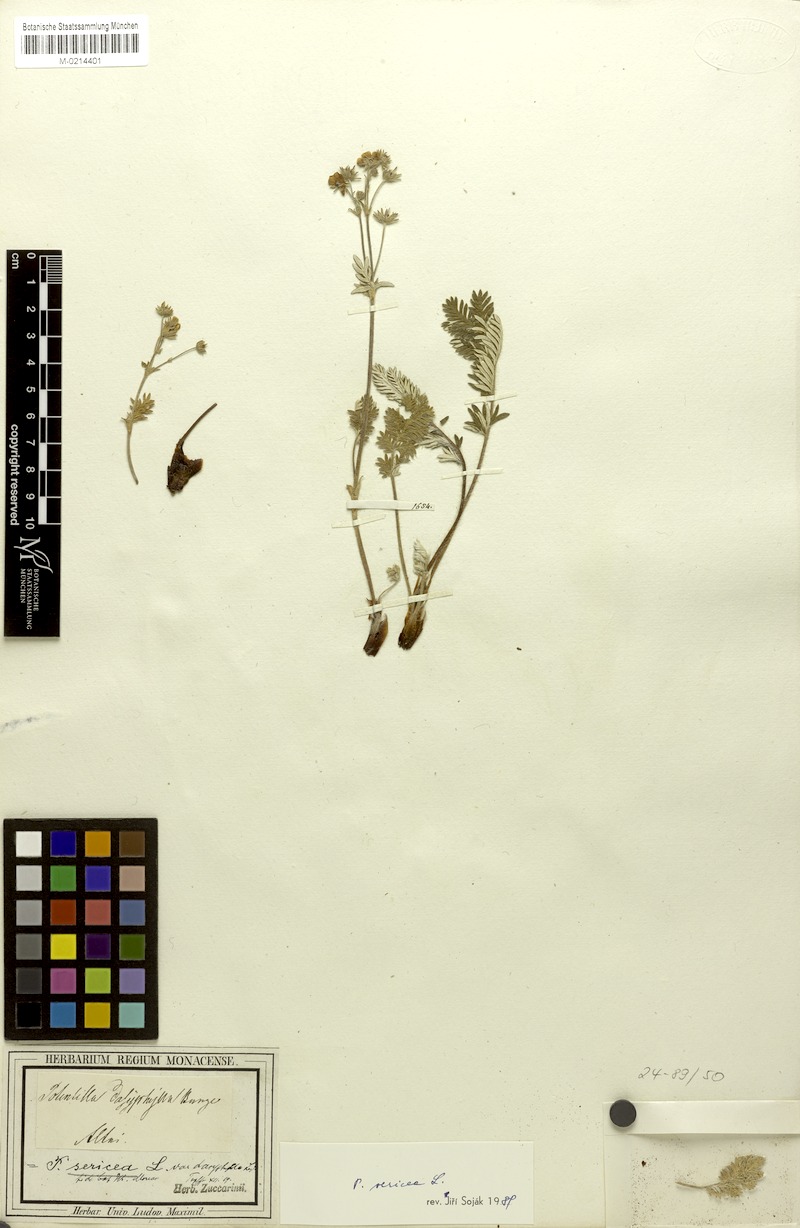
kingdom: Plantae
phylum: Tracheophyta
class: Magnoliopsida
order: Rosales
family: Rosaceae
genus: Potentilla
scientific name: Potentilla sericea
